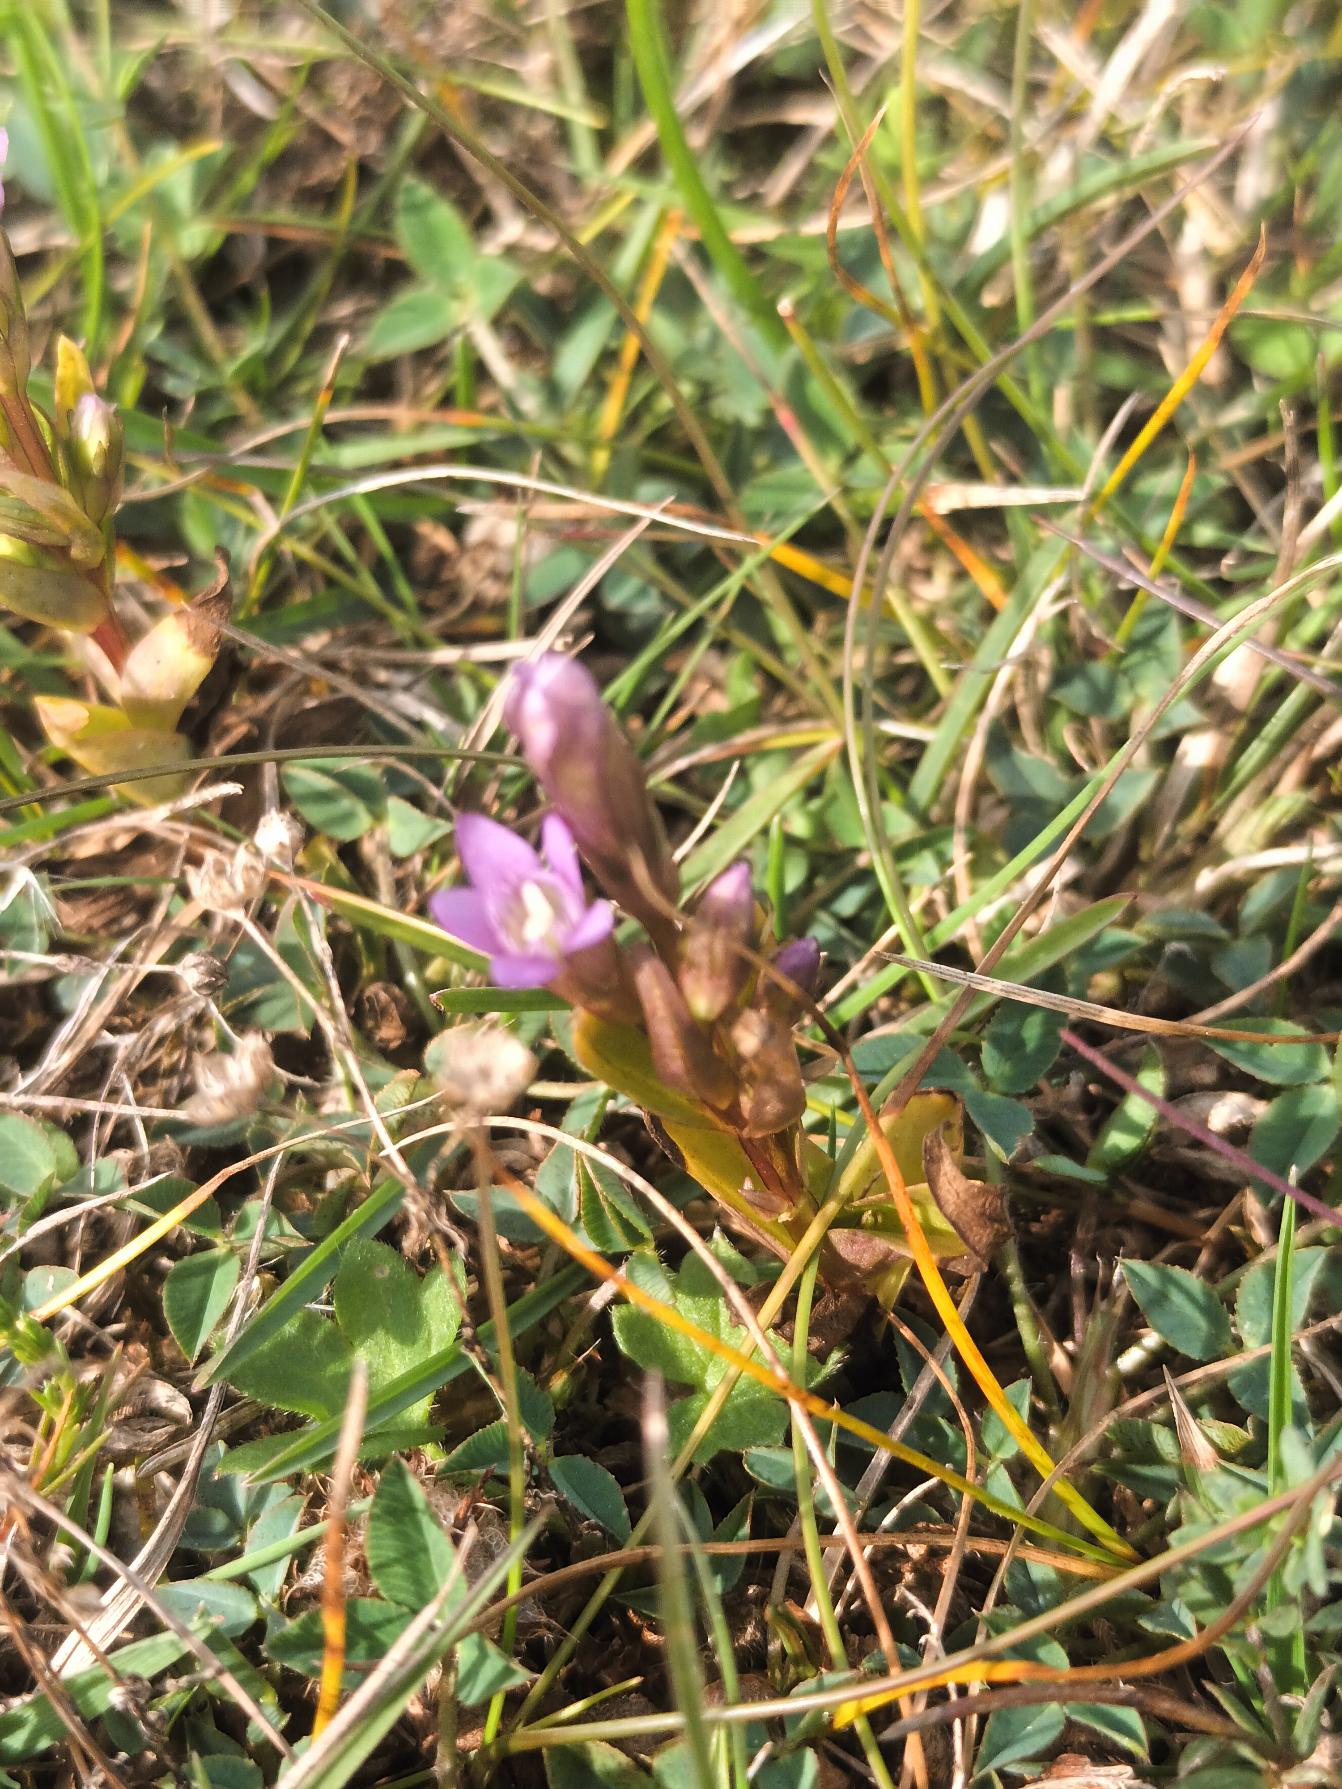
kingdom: Plantae
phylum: Tracheophyta
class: Magnoliopsida
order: Gentianales
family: Gentianaceae
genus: Gentianella
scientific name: Gentianella uliginosa
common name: Eng-ensian
